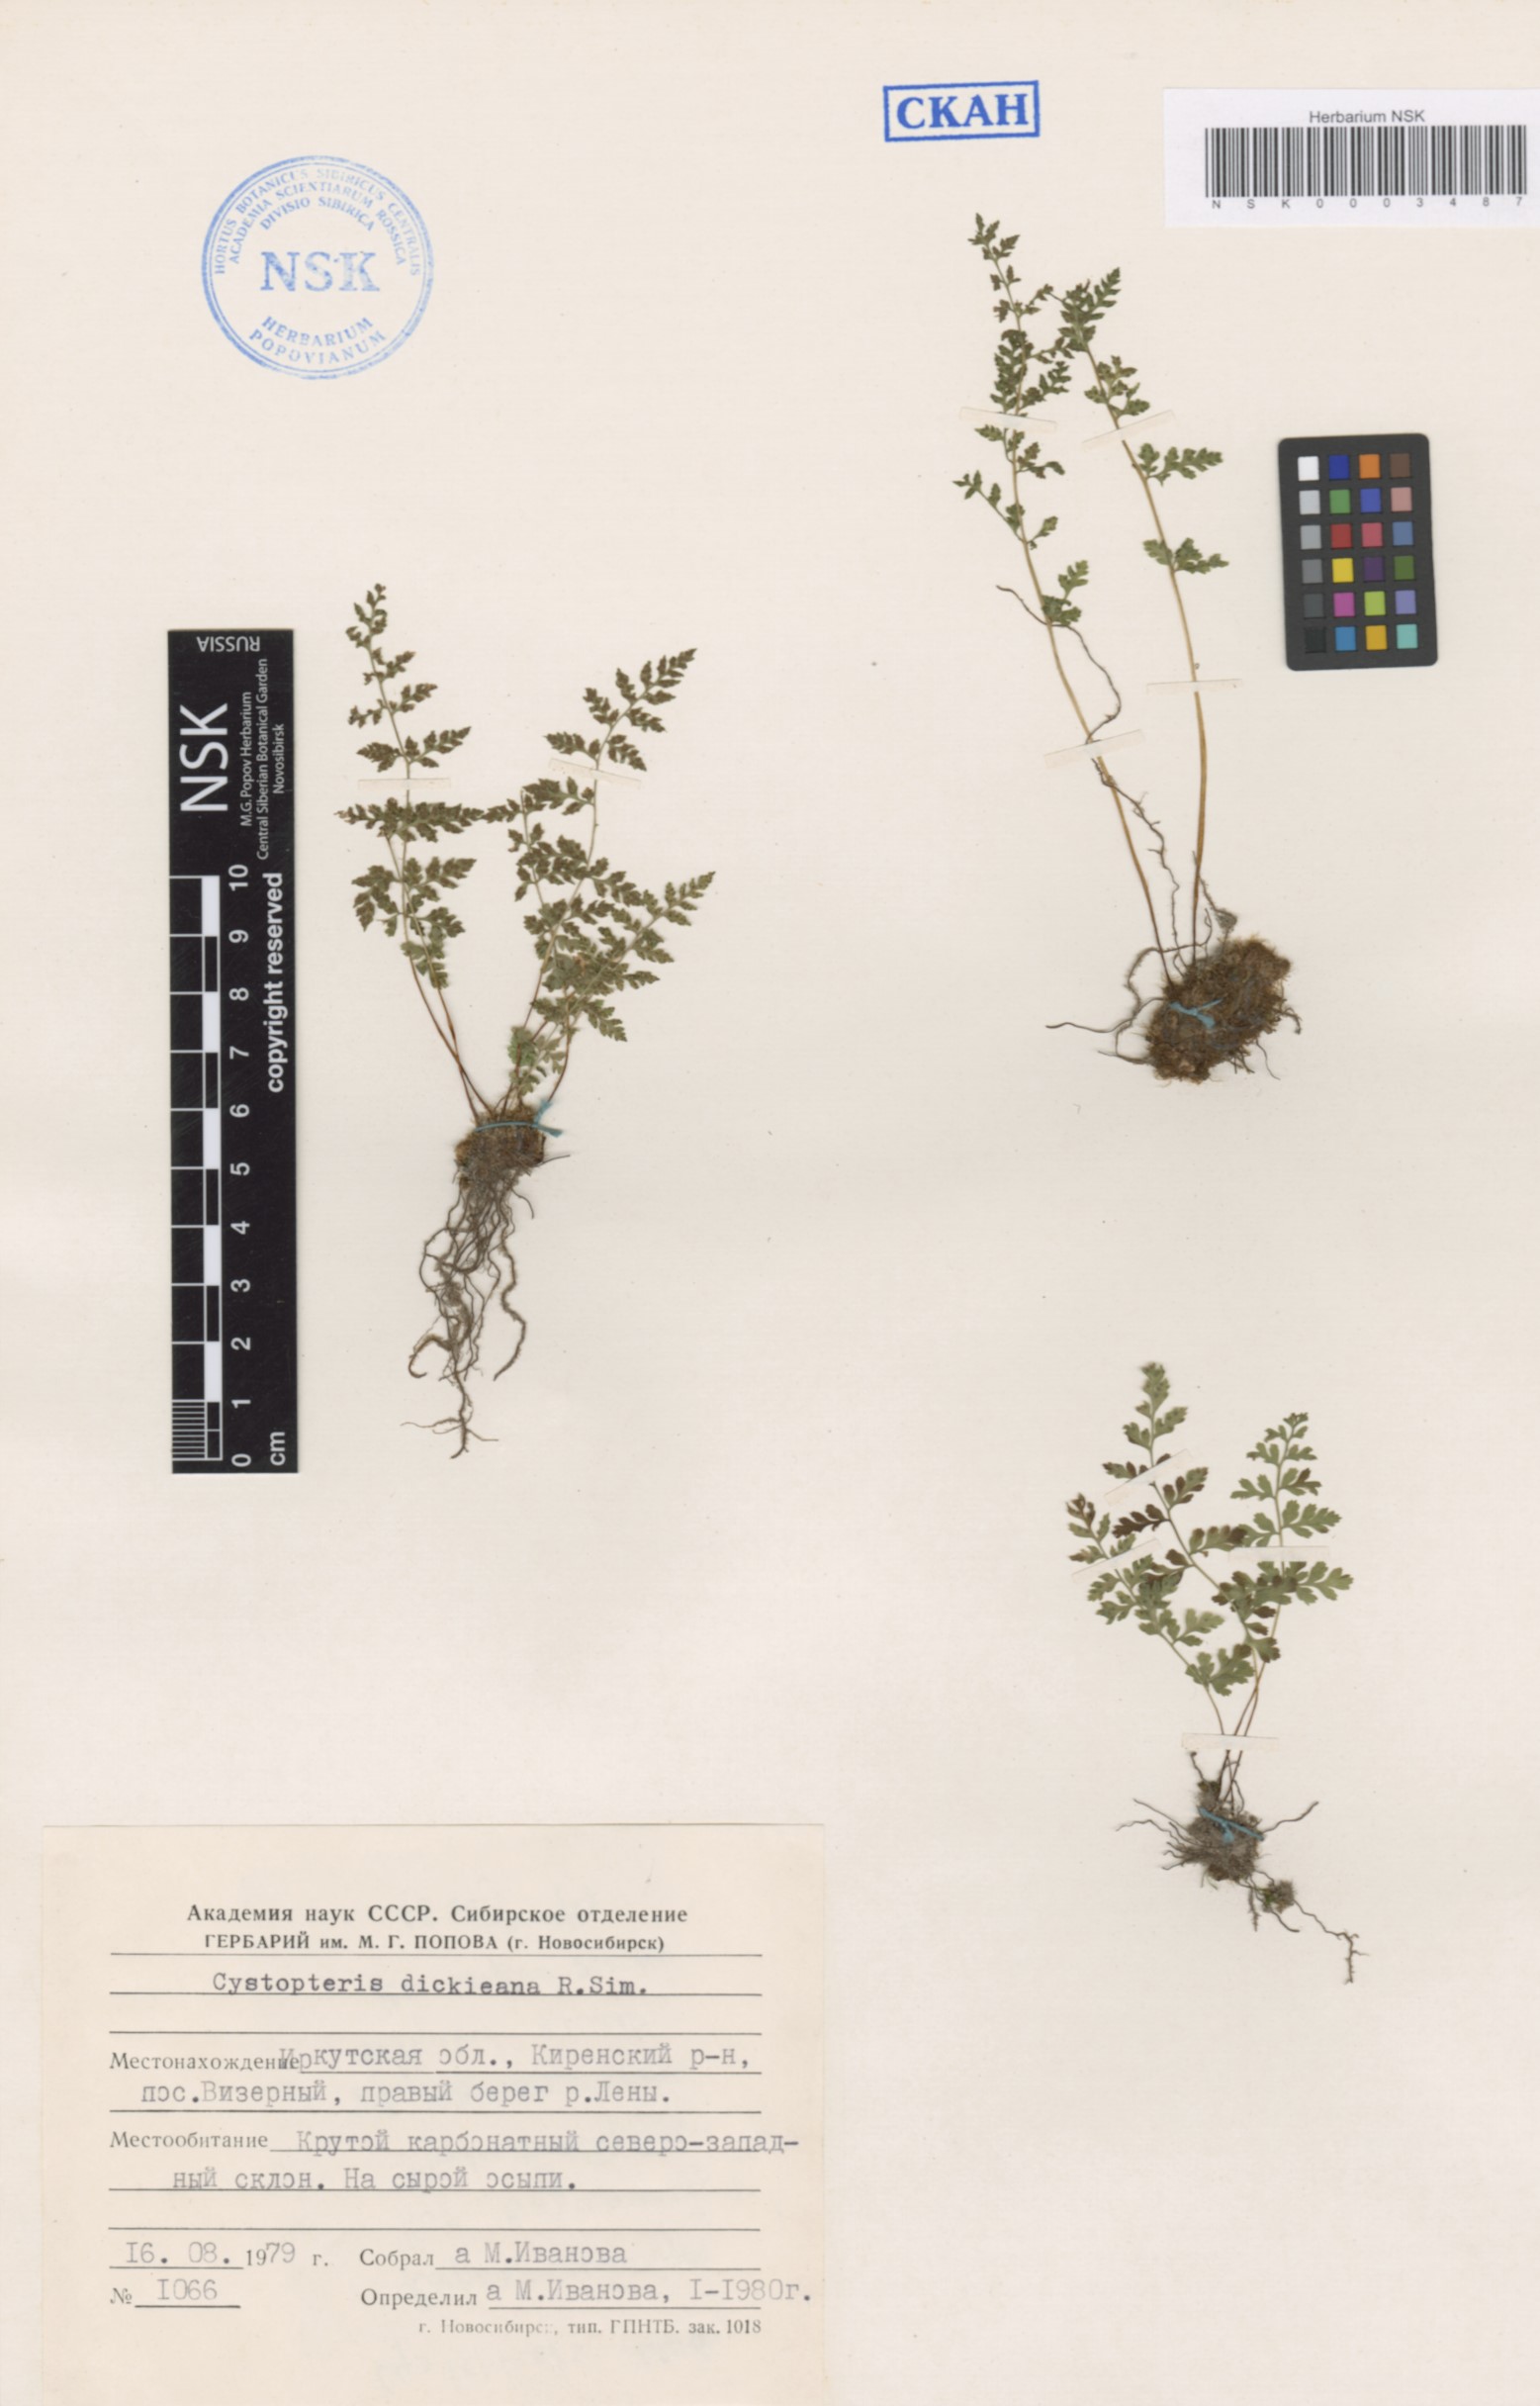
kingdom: Plantae
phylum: Tracheophyta
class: Polypodiopsida
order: Polypodiales
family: Cystopteridaceae
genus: Cystopteris
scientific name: Cystopteris dickieana
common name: Dickie's bladder-fern
